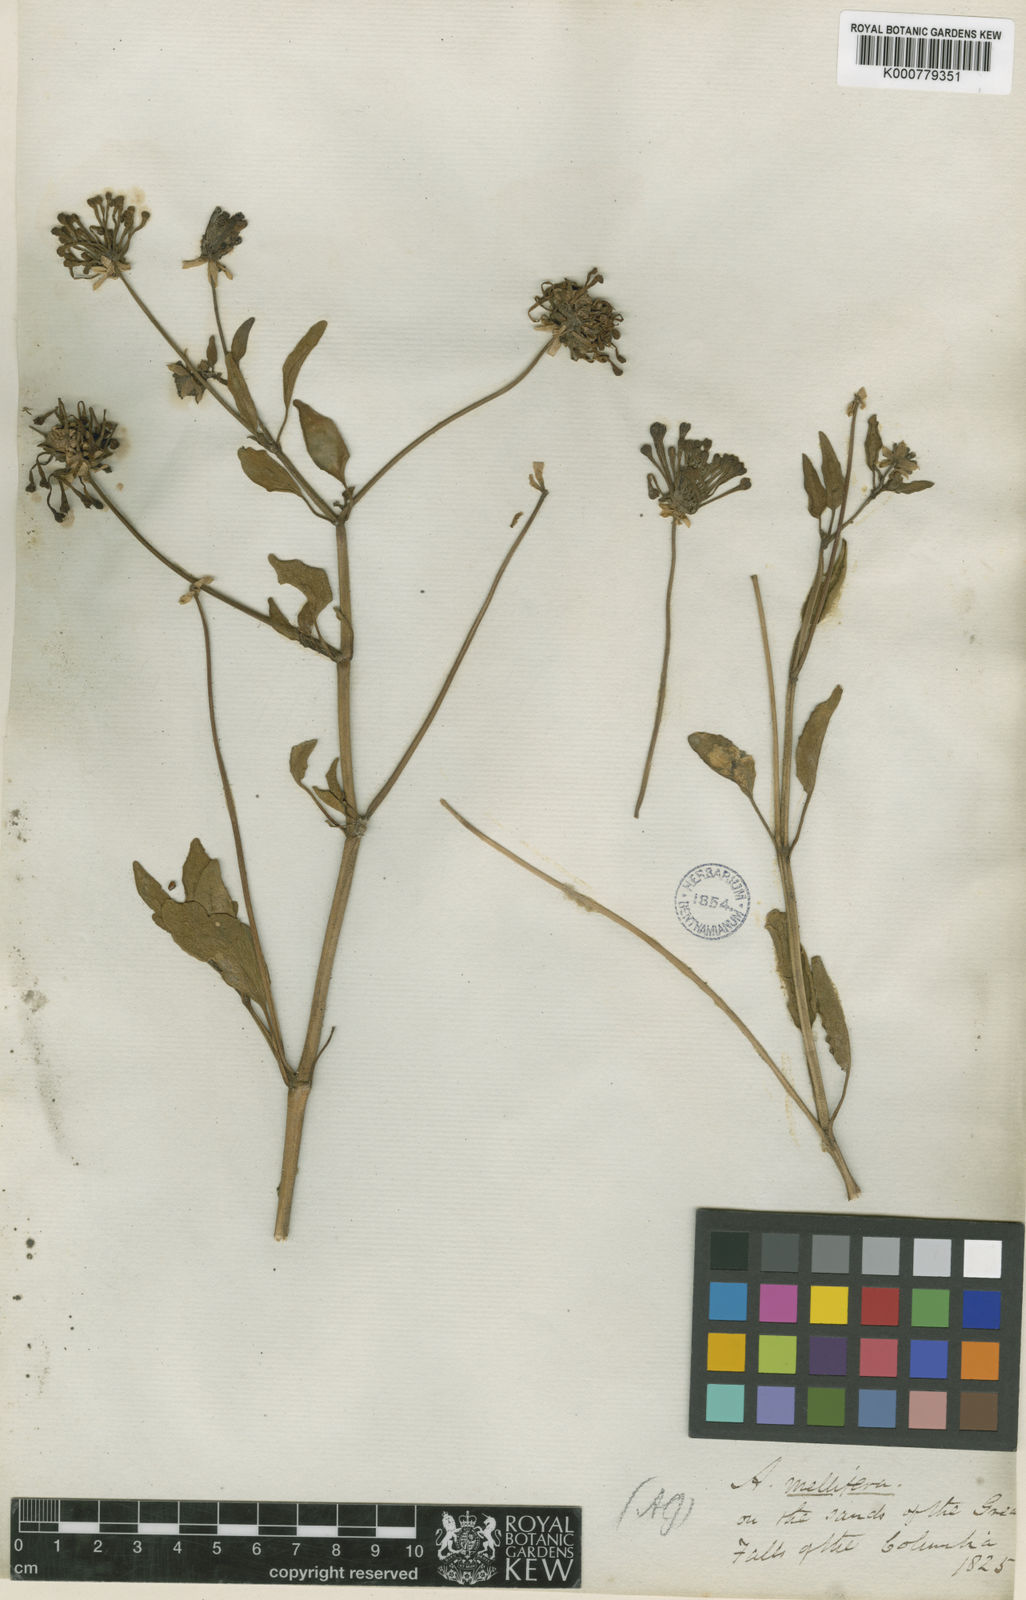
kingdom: Plantae
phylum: Tracheophyta
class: Magnoliopsida
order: Caryophyllales
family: Nyctaginaceae
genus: Abronia
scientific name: Abronia
